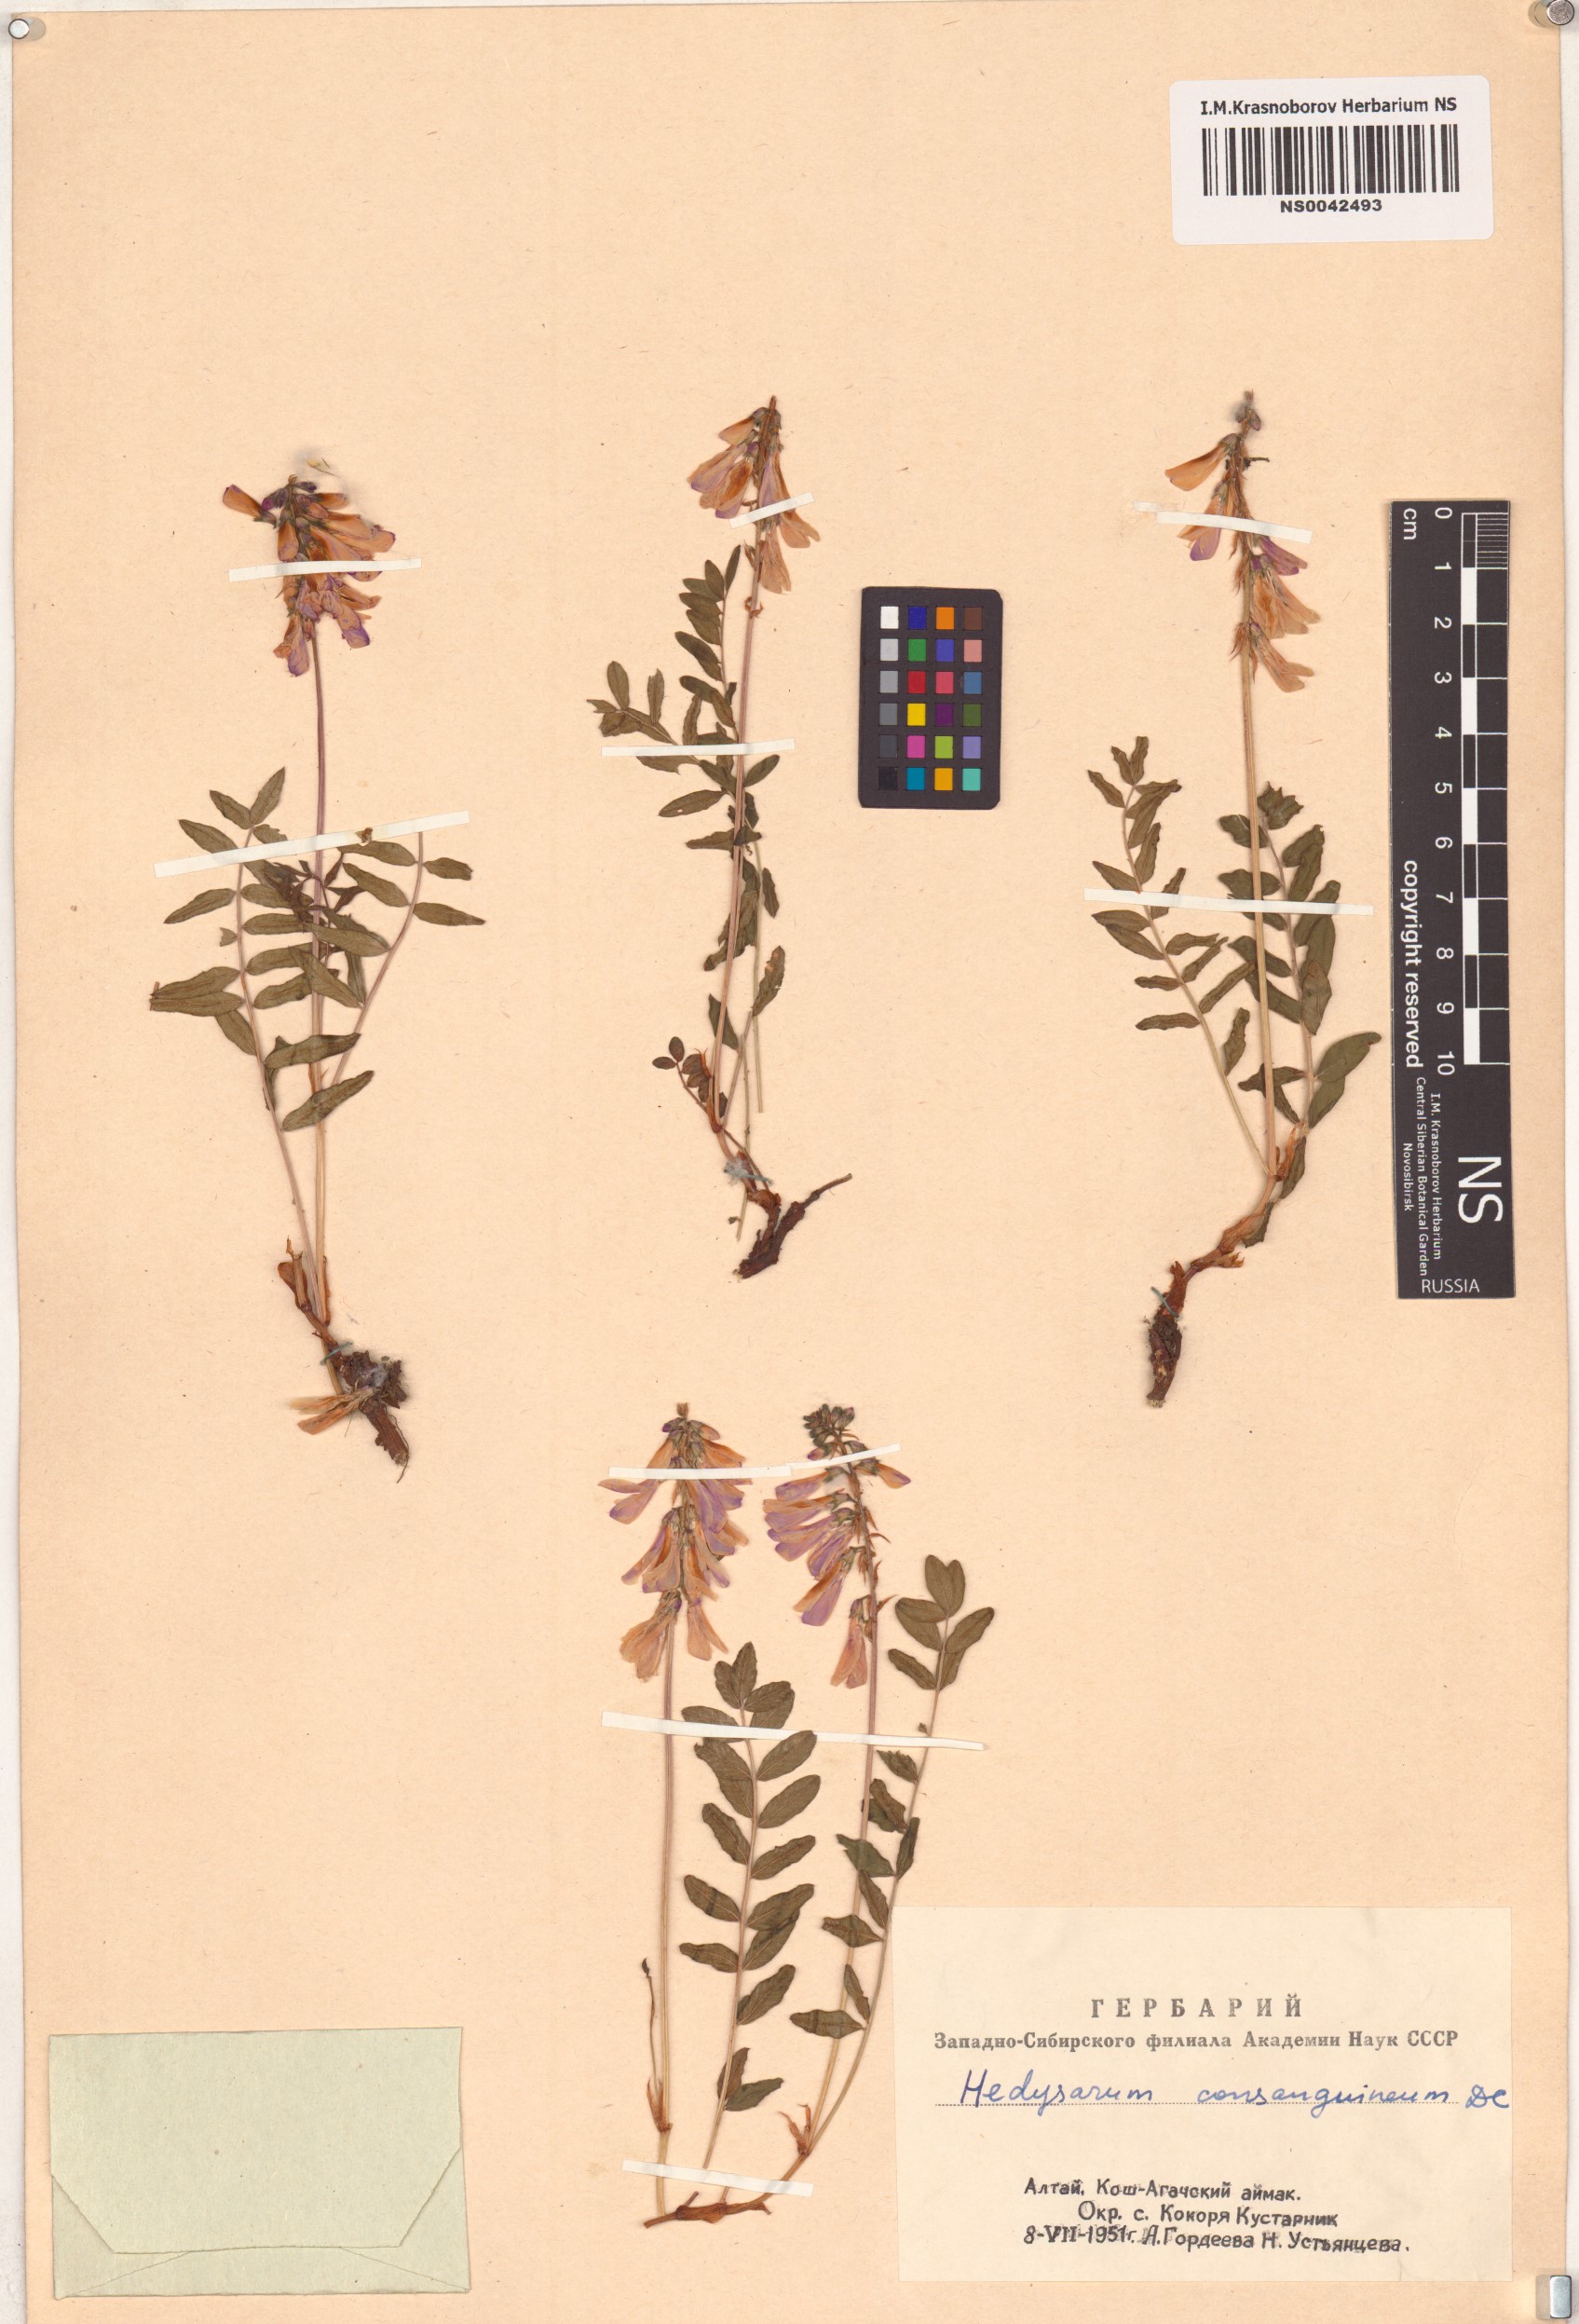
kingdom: Plantae
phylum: Tracheophyta
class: Magnoliopsida
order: Fabales
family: Fabaceae
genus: Hedysarum
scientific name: Hedysarum consanguineum
